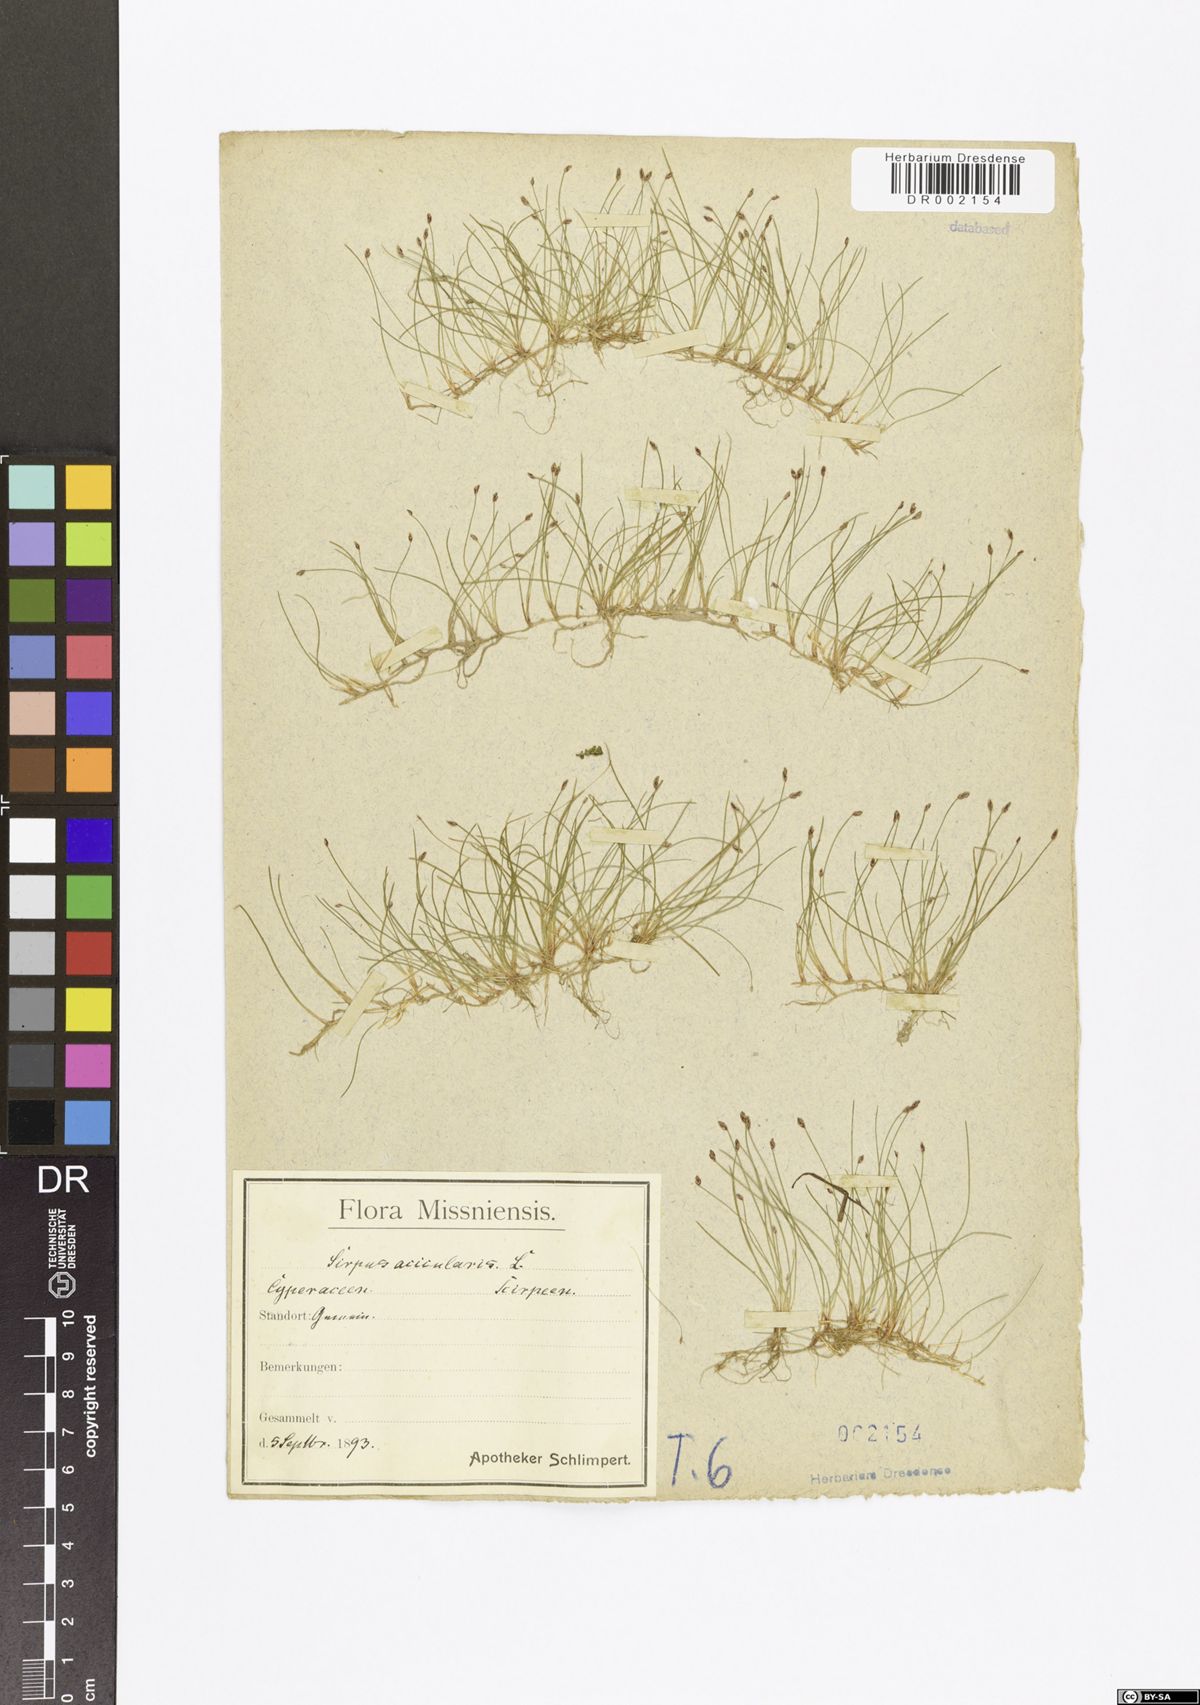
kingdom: Plantae
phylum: Tracheophyta
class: Liliopsida
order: Poales
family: Cyperaceae
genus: Eleocharis
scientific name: Eleocharis acicularis
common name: Needle spike-rush
